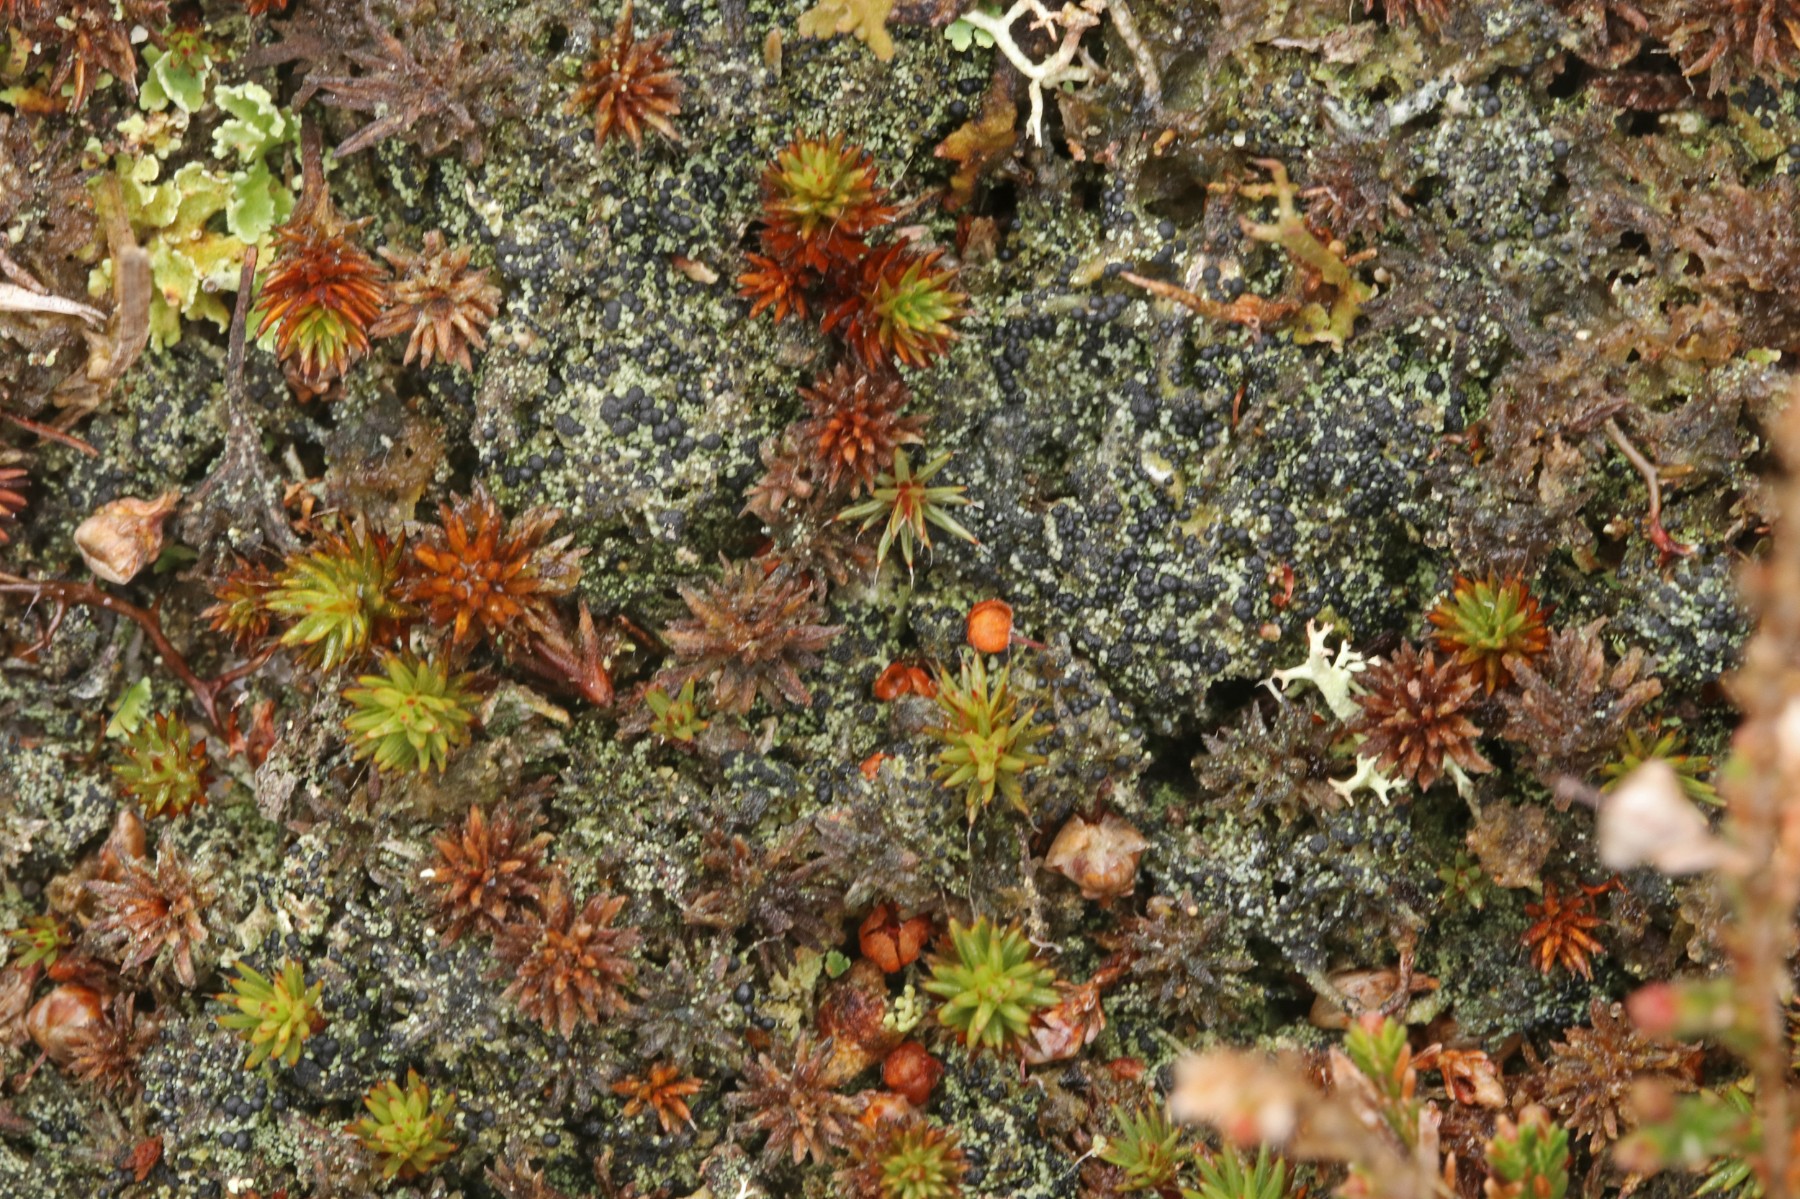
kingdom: Fungi
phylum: Ascomycota
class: Lecanoromycetes
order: Lecanorales
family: Byssolomataceae
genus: Micarea
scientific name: Micarea lignaria
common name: tørve-knaplav
